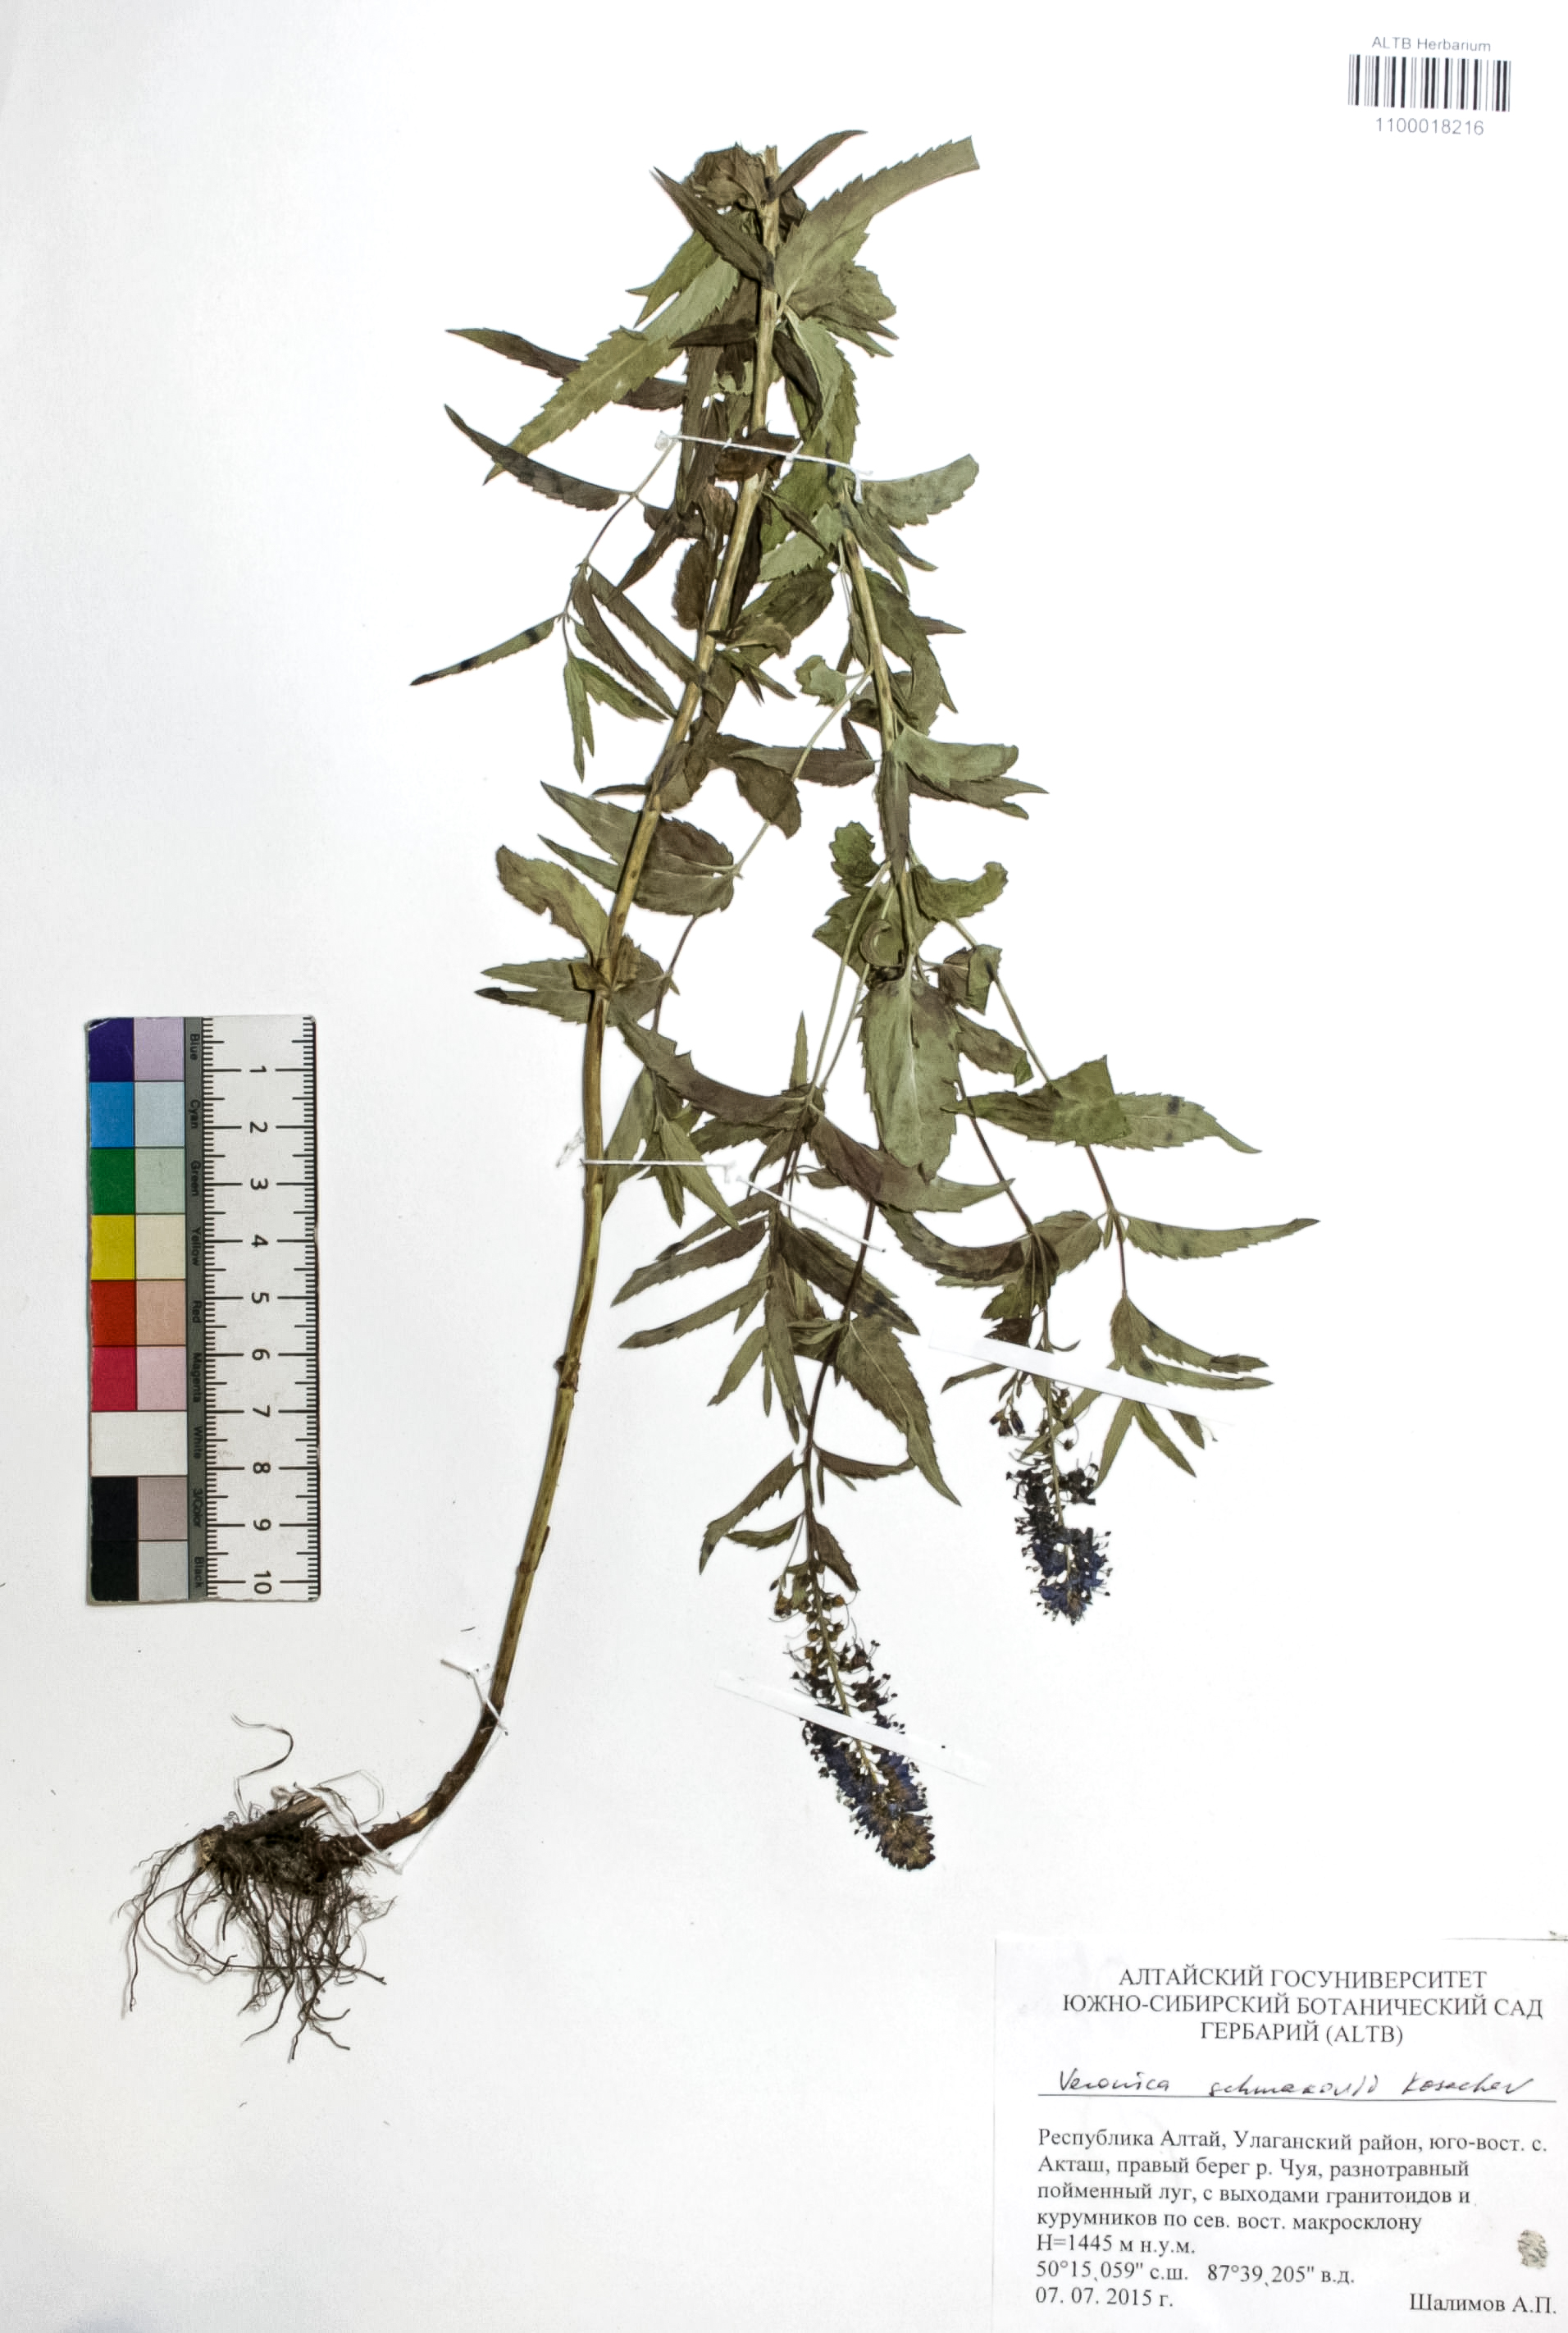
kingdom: Plantae
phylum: Tracheophyta
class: Magnoliopsida
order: Lamiales
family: Plantaginaceae
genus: Veronica
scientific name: Veronica schmakovii
